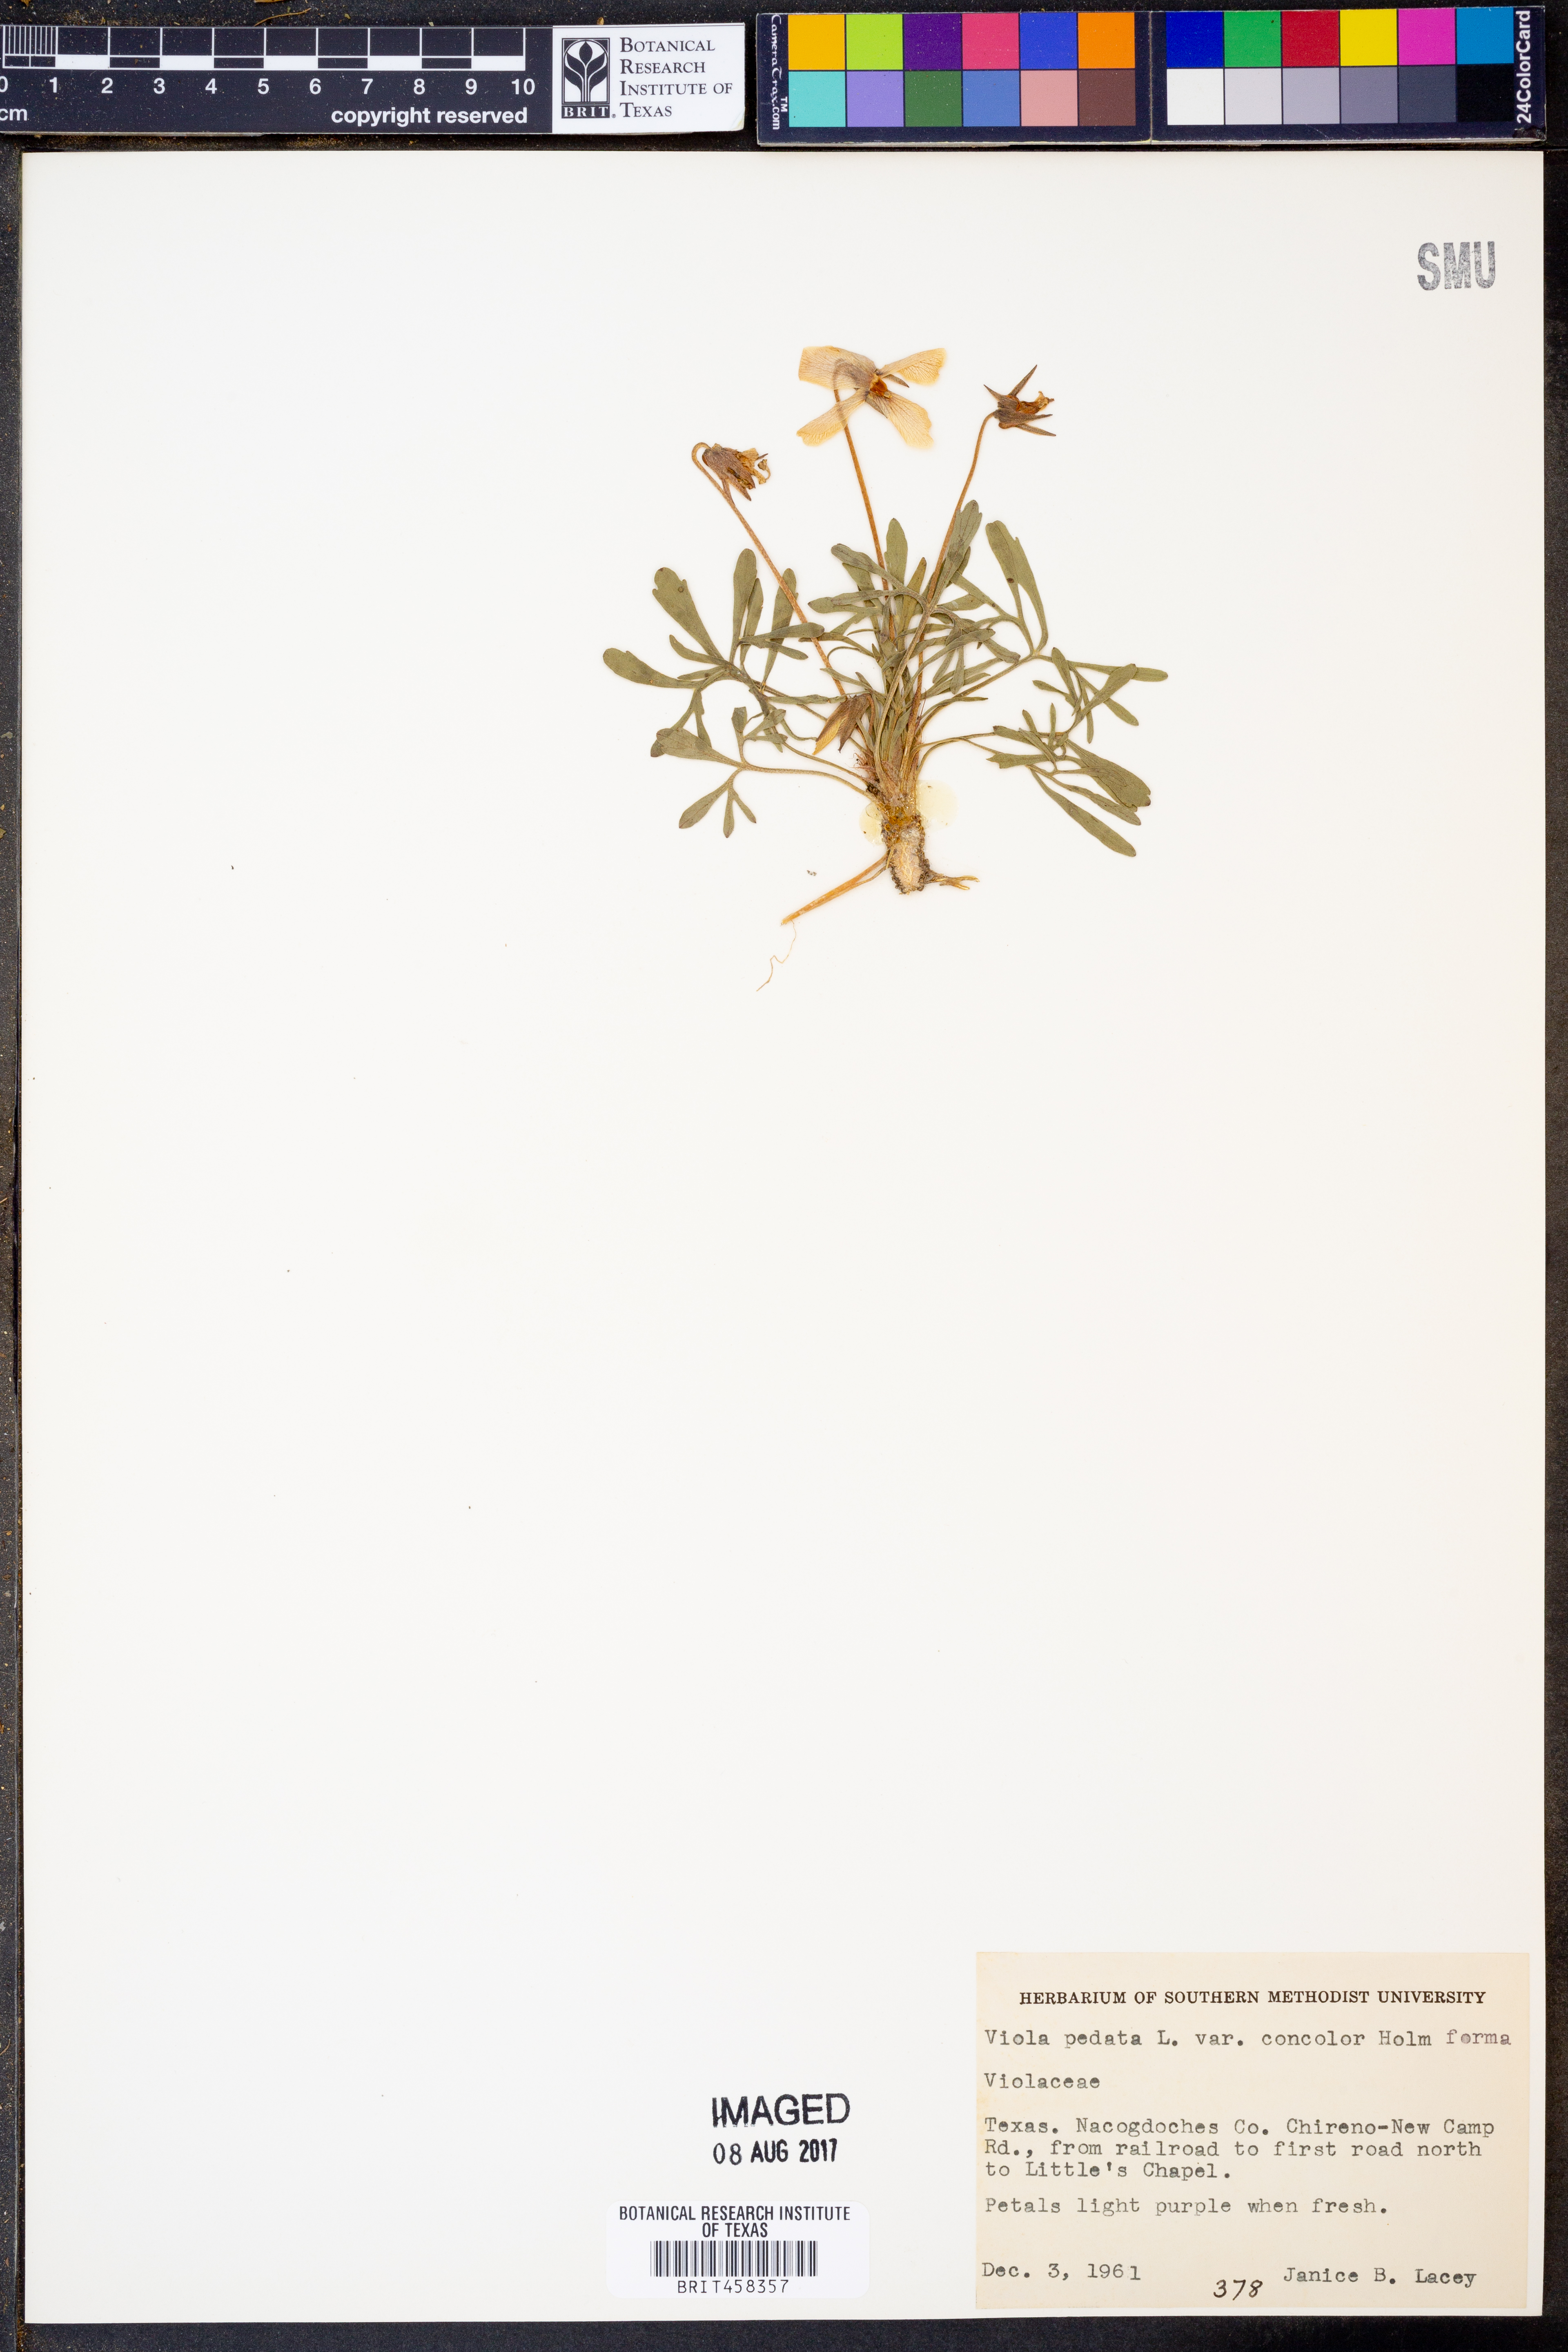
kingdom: Plantae
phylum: Tracheophyta
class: Magnoliopsida
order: Malpighiales
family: Violaceae
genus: Viola
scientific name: Viola pedata
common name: Pansy violet
